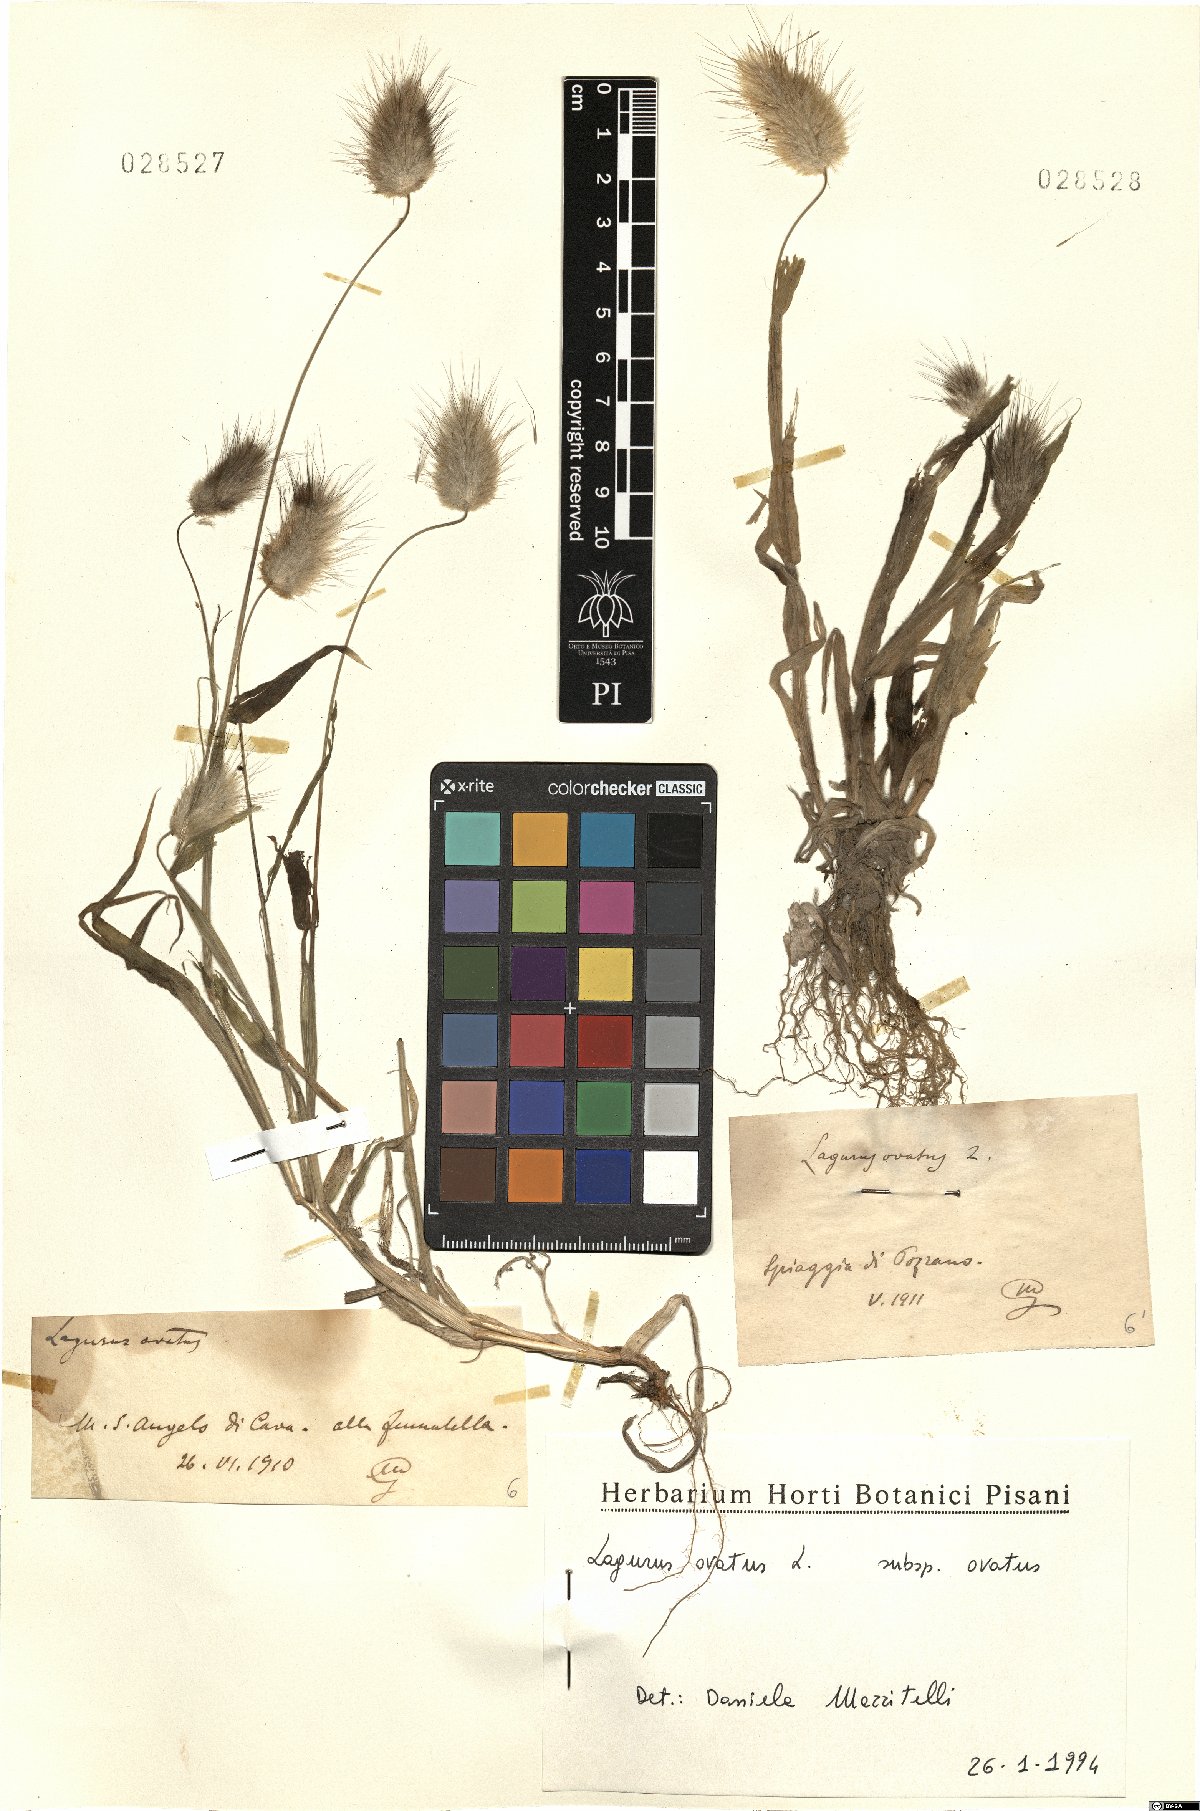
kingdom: Plantae
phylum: Tracheophyta
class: Liliopsida
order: Poales
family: Poaceae
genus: Lagurus
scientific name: Lagurus ovatus
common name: Hare's-tail
